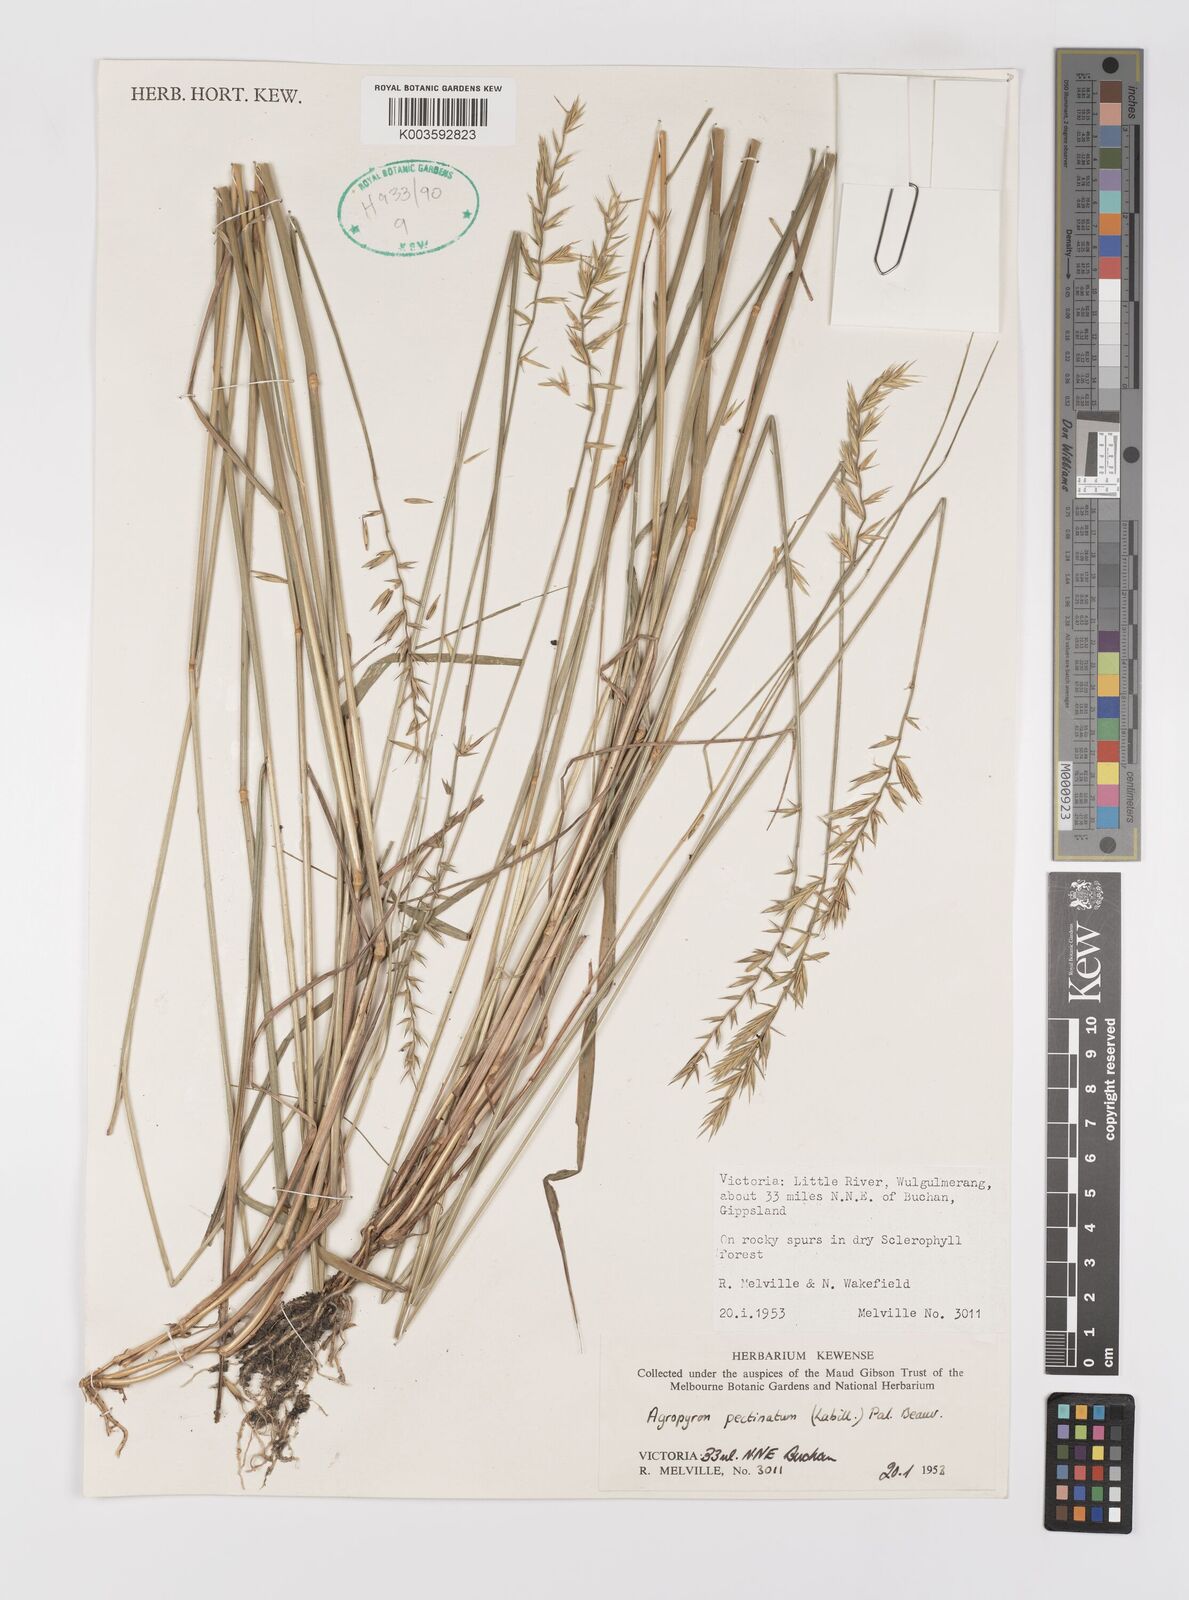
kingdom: Plantae
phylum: Tracheophyta
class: Liliopsida
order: Poales
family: Poaceae
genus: Australopyrum
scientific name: Australopyrum pectinatum
